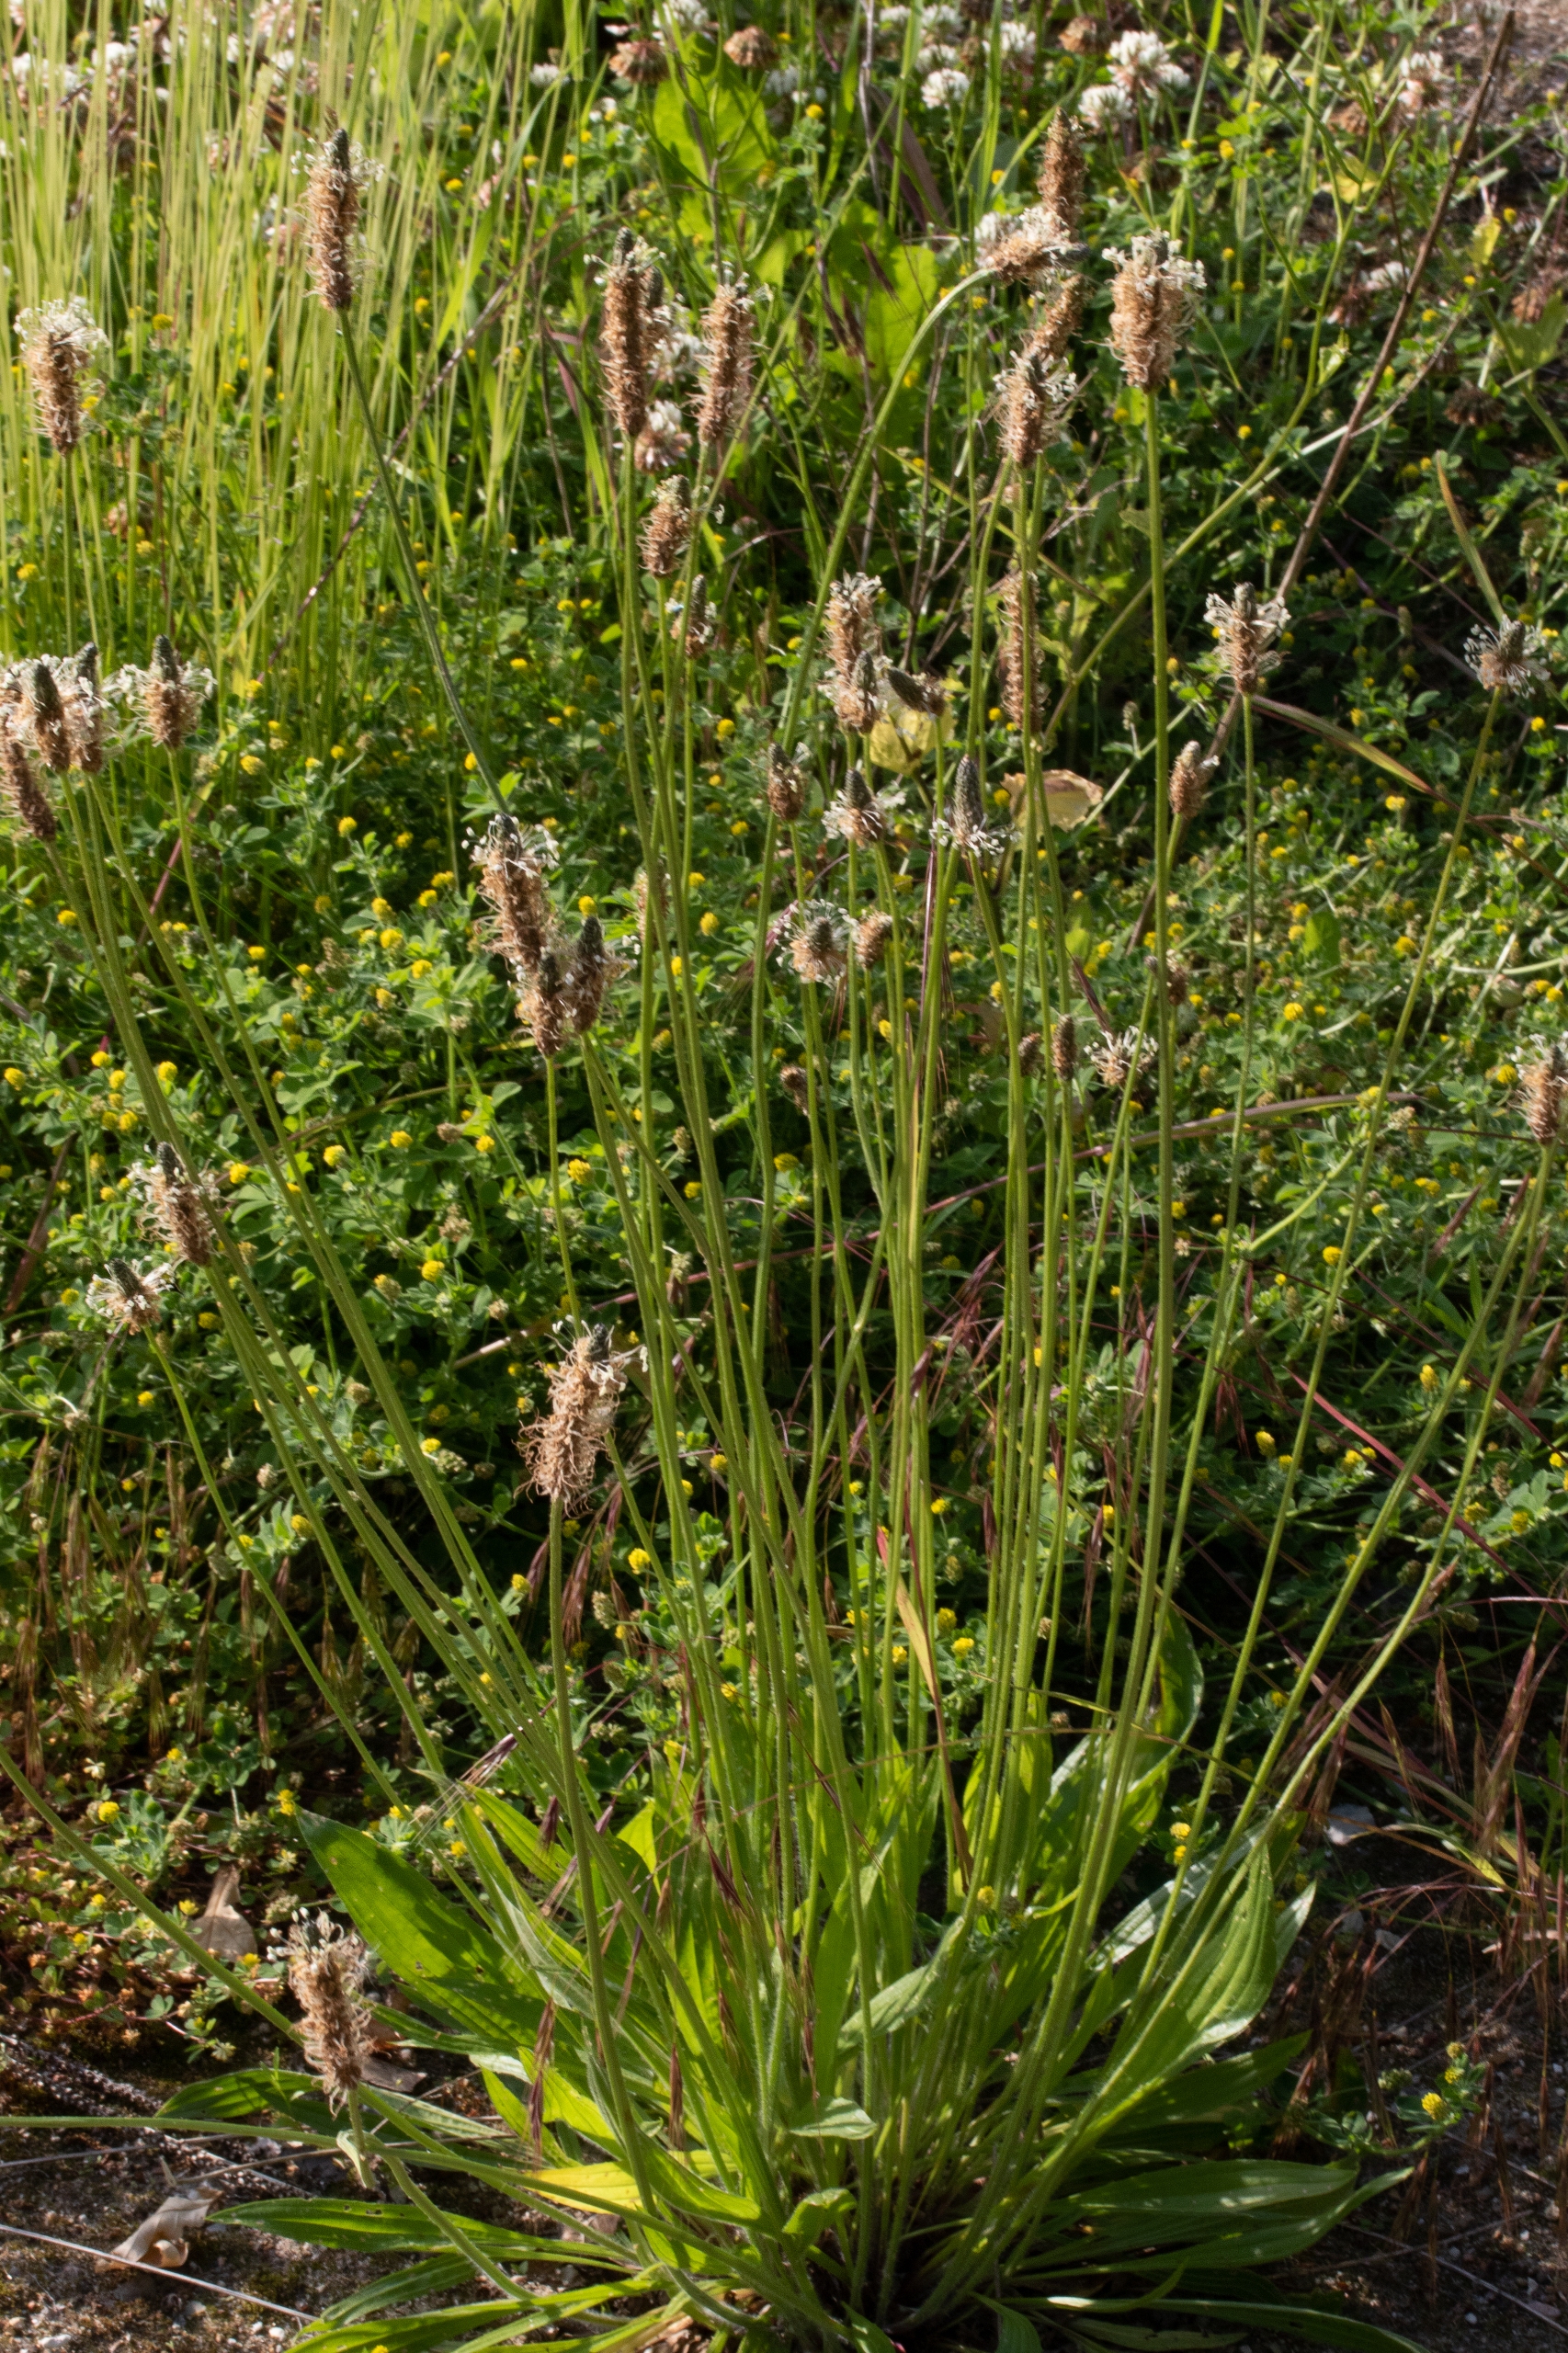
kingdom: Plantae
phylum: Tracheophyta
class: Magnoliopsida
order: Lamiales
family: Plantaginaceae
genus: Plantago
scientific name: Plantago lanceolata
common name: Lancet-vejbred
